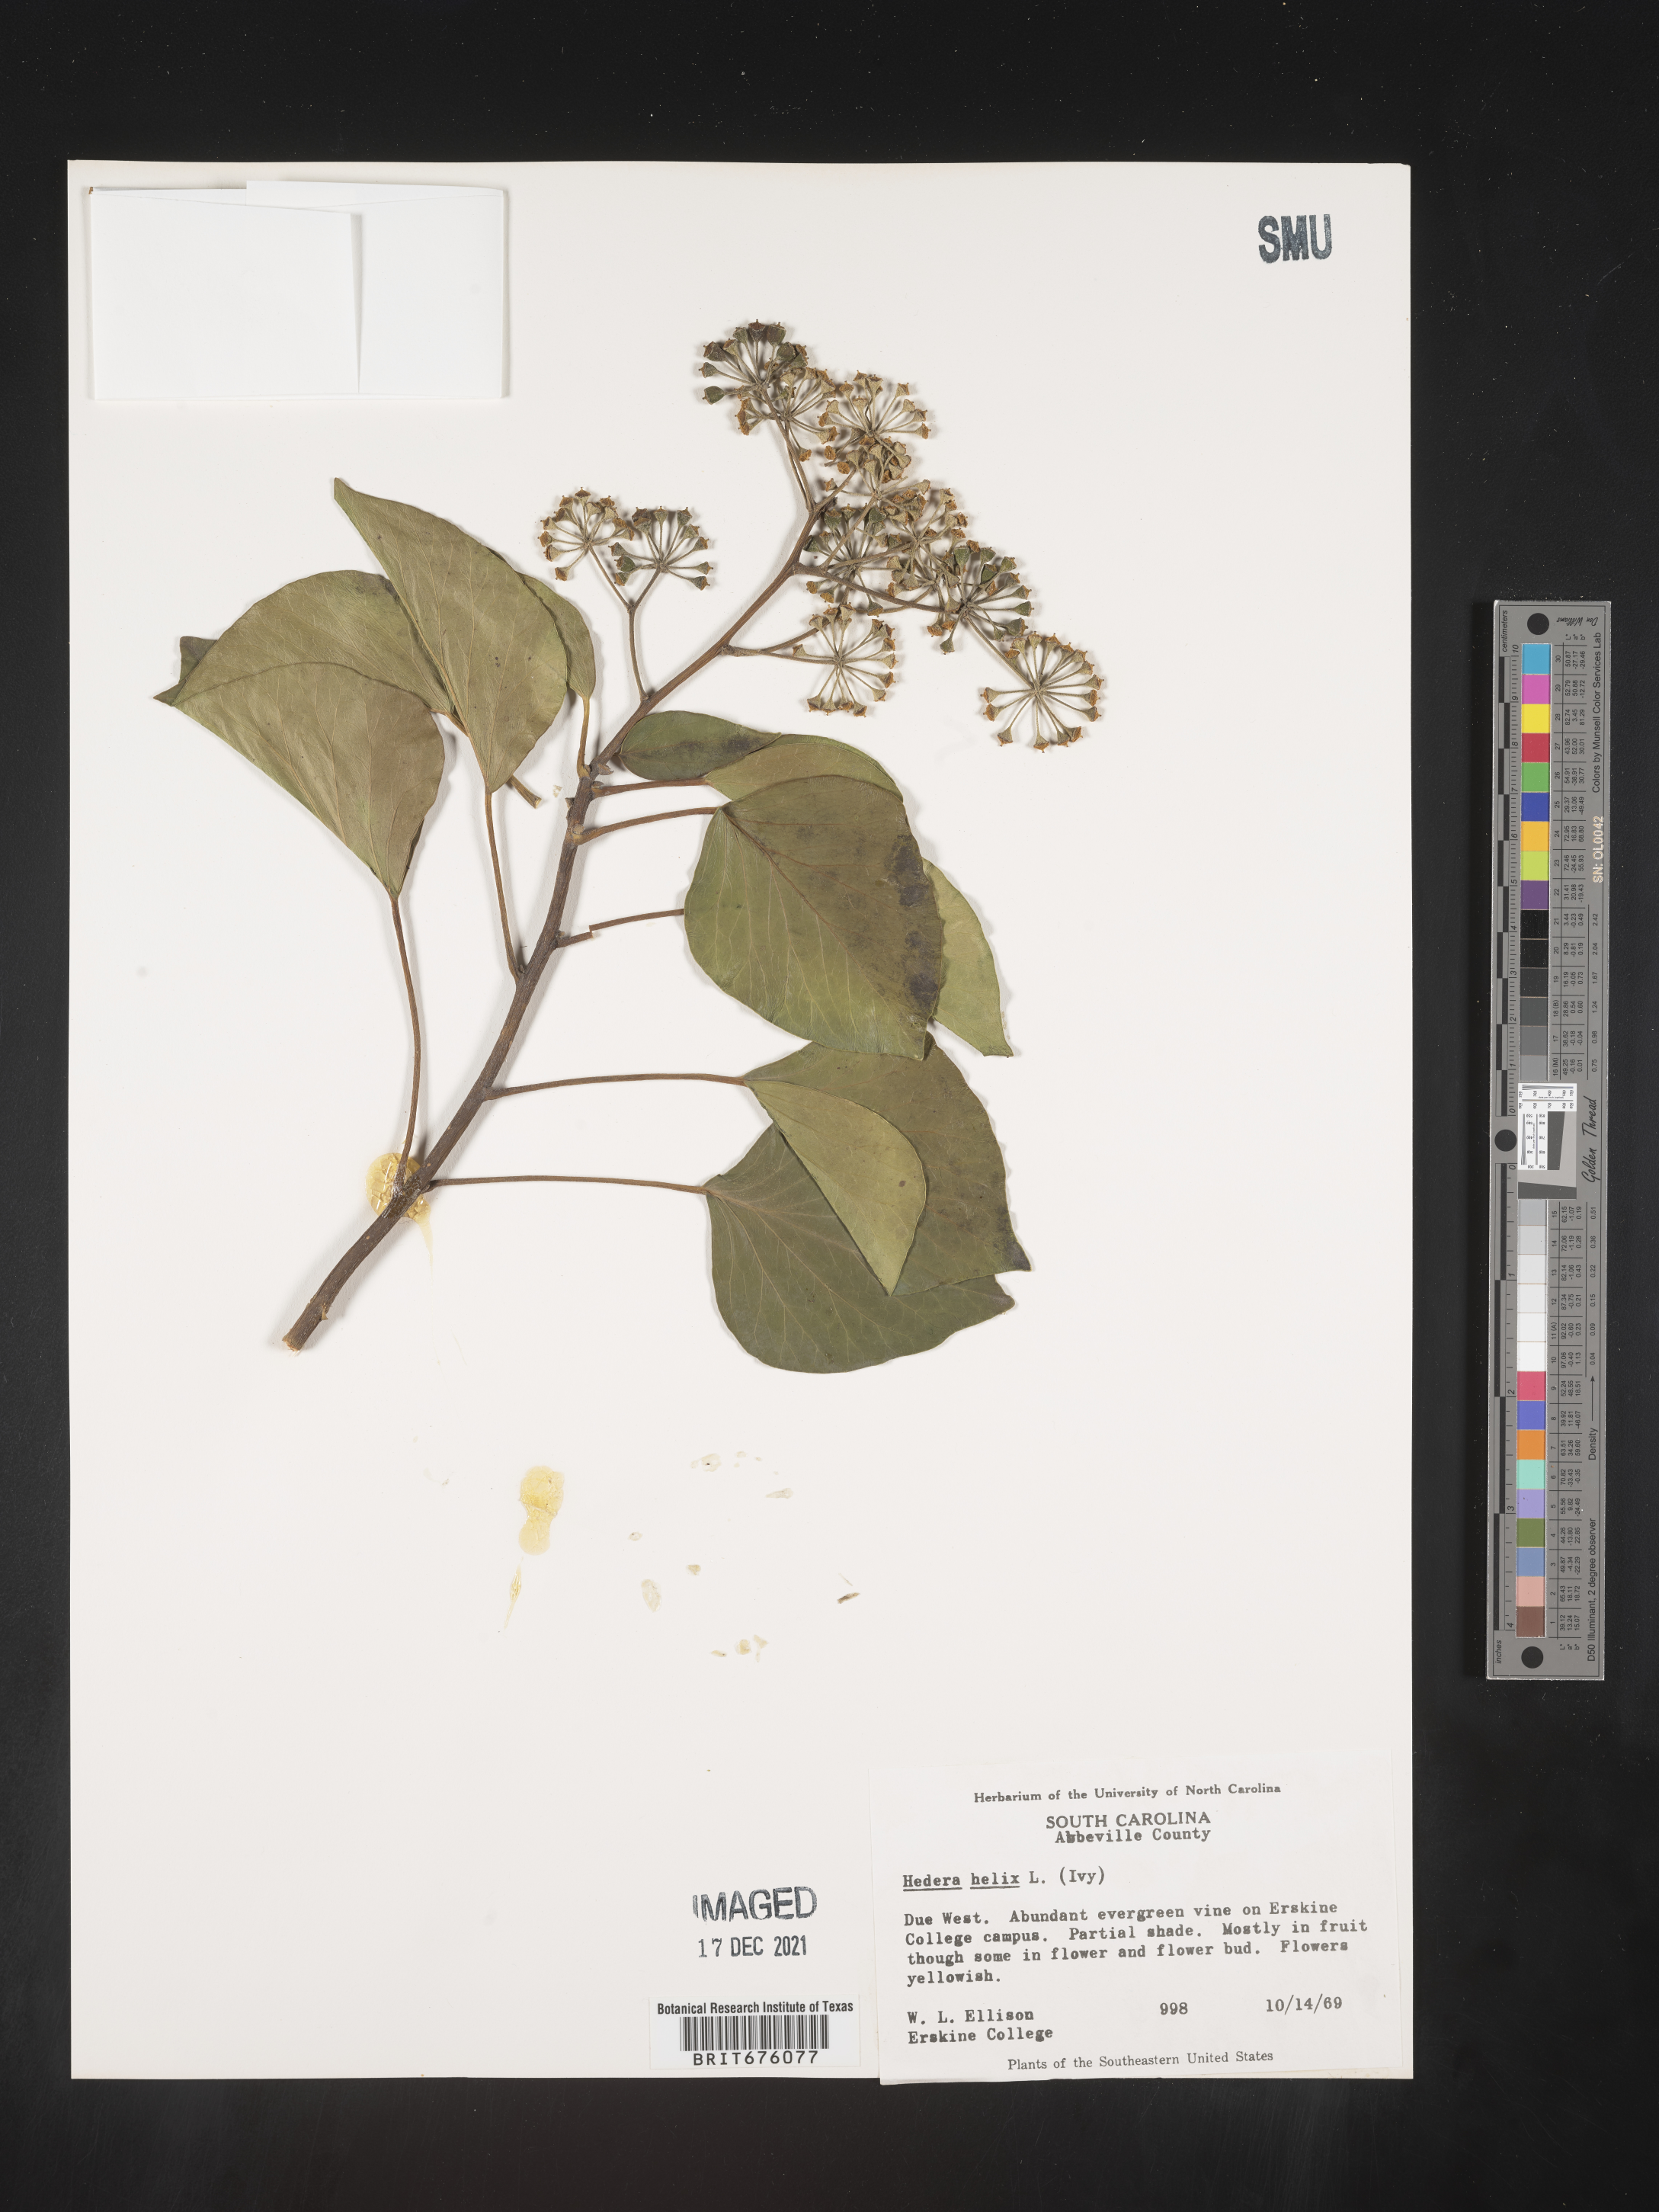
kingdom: Plantae
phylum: Tracheophyta
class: Magnoliopsida
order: Apiales
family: Araliaceae
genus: Hedera
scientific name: Hedera
